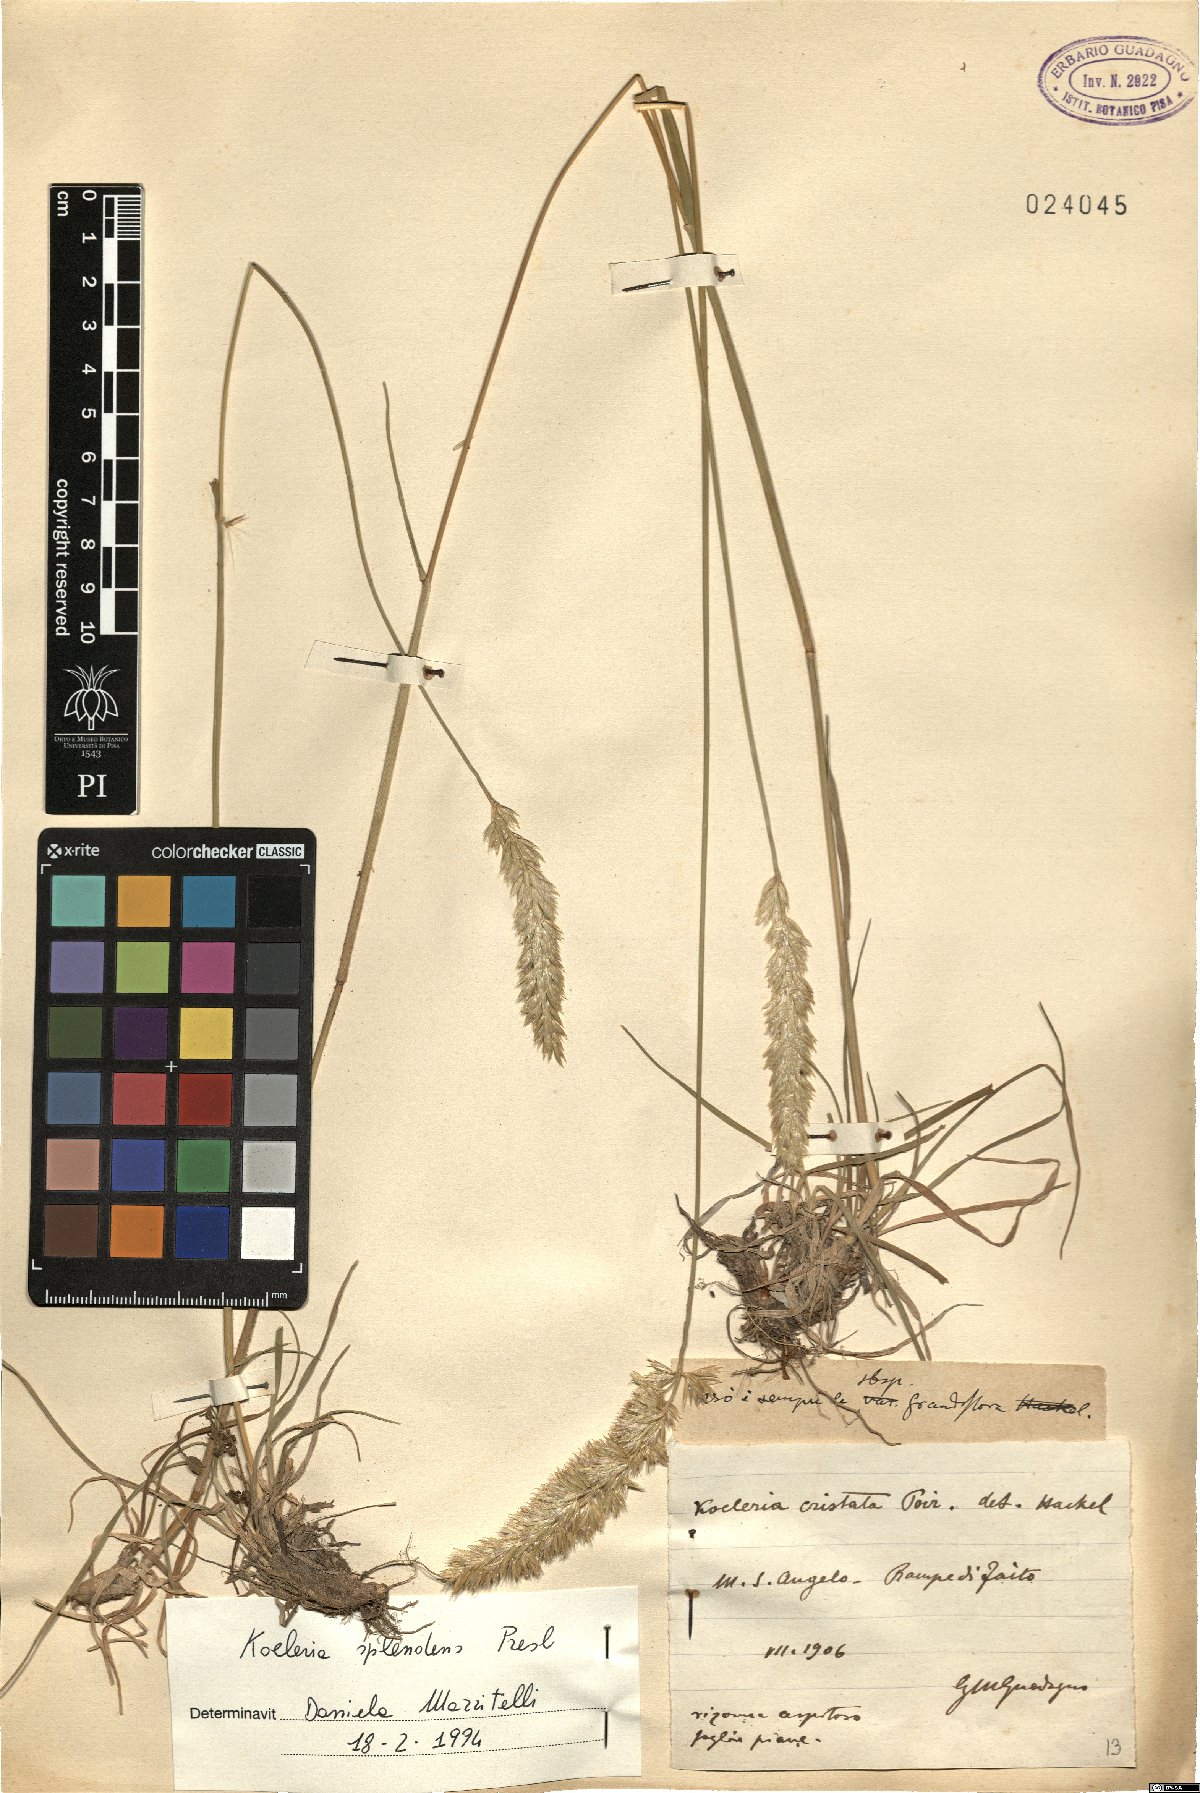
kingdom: Plantae
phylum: Tracheophyta
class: Liliopsida
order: Poales
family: Poaceae
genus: Koeleria
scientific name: Koeleria splendens
